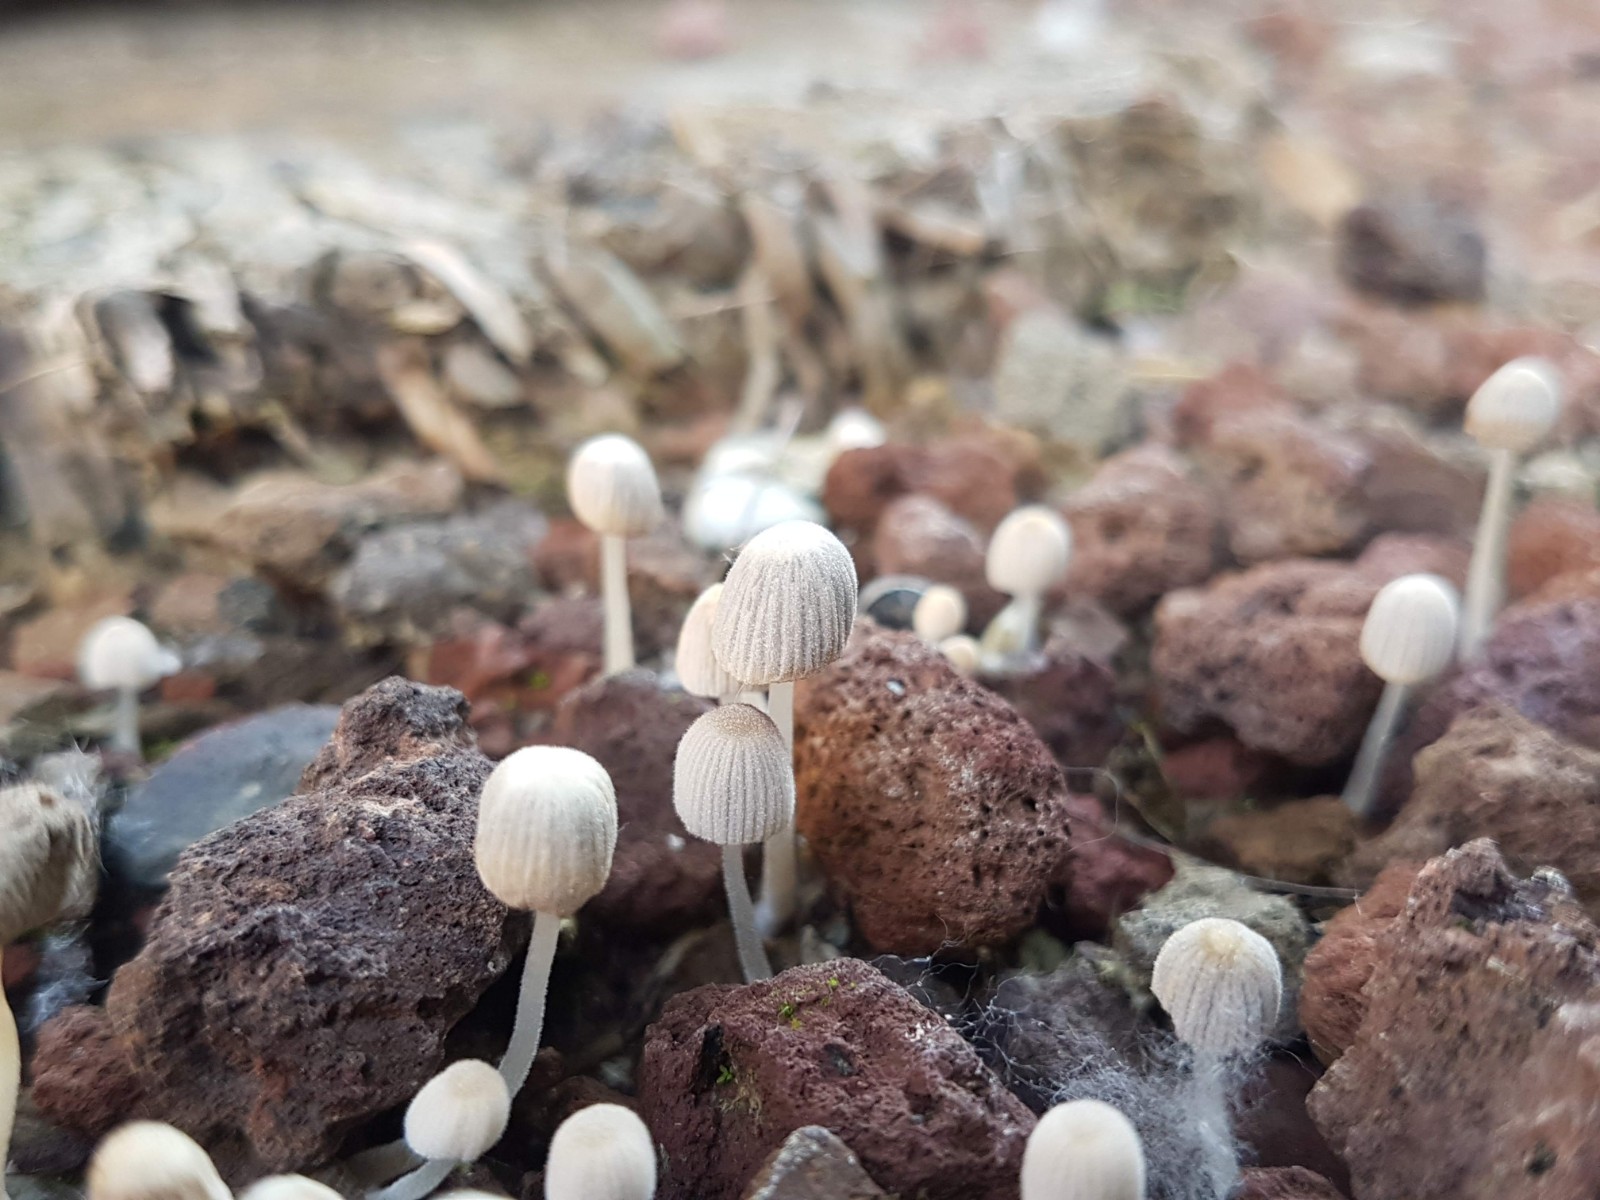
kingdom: Fungi
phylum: Basidiomycota
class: Agaricomycetes
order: Agaricales
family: Psathyrellaceae
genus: Coprinellus
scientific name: Coprinellus
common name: blækhat
